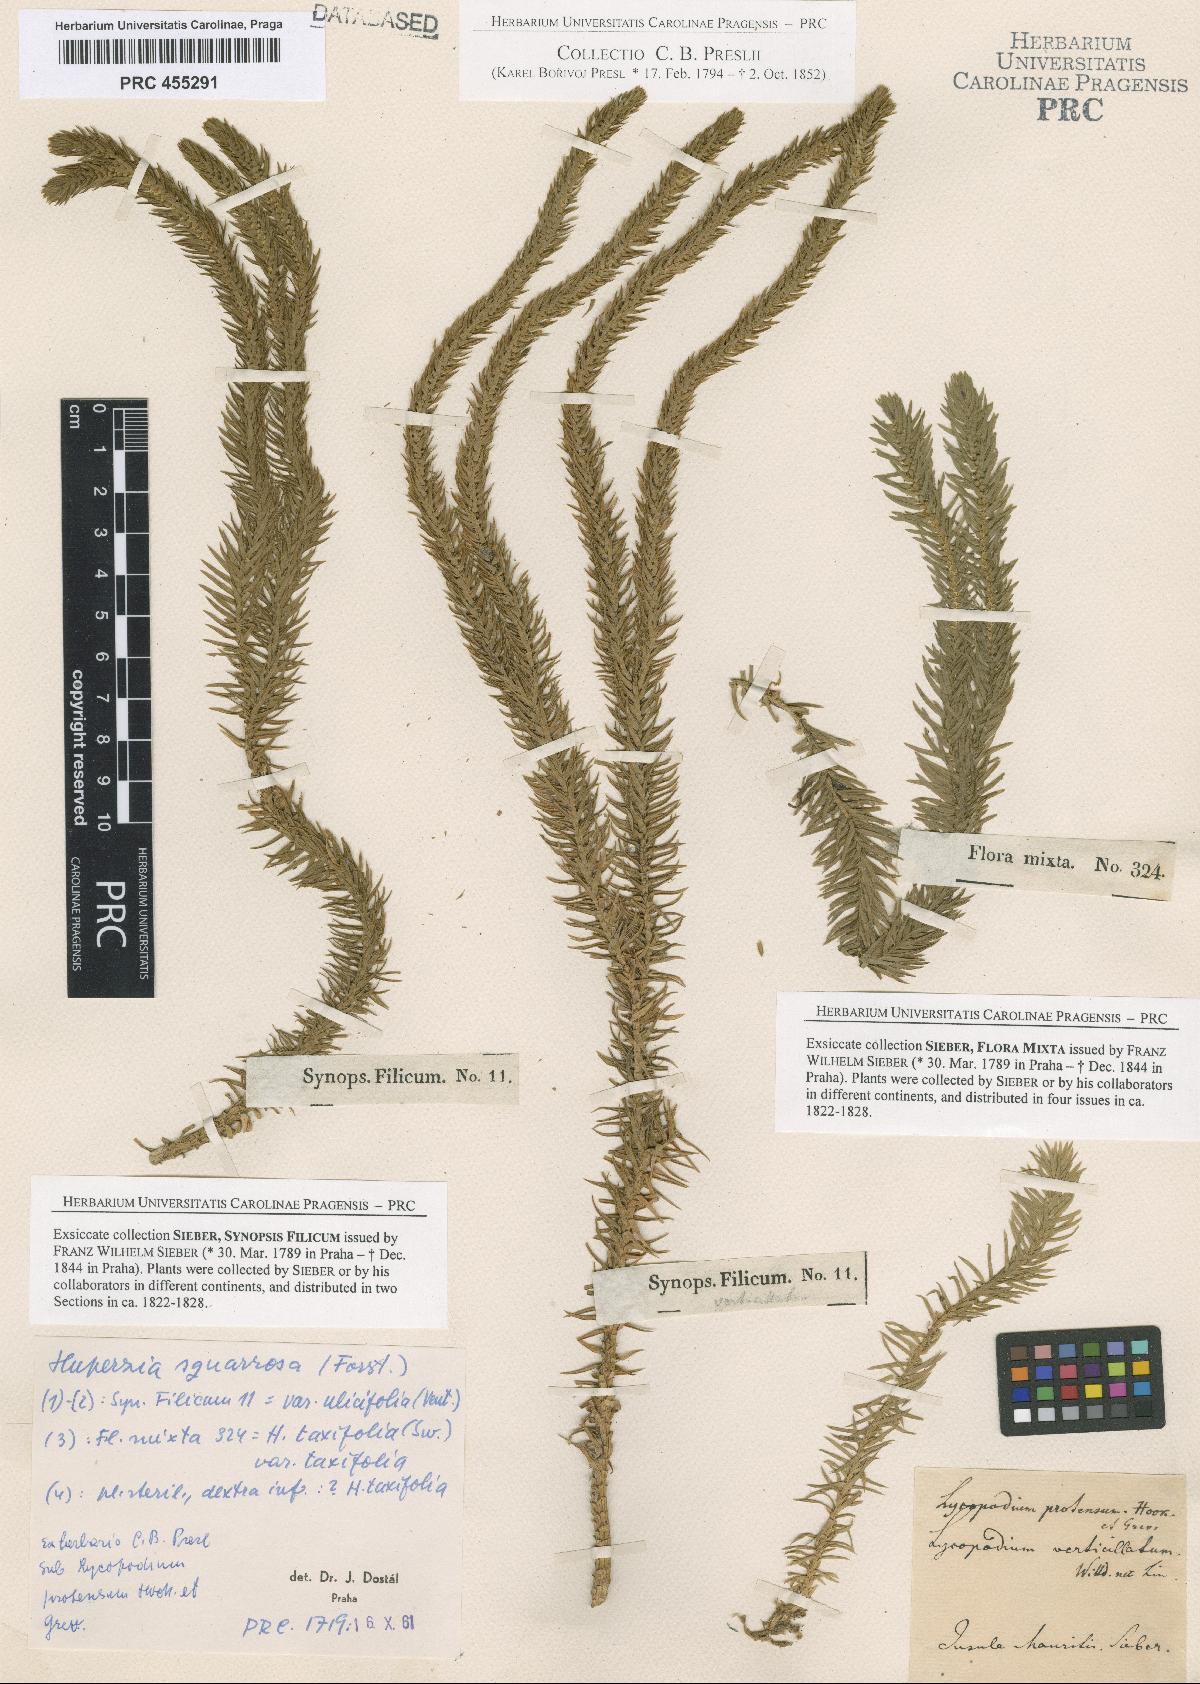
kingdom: Plantae
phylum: Tracheophyta
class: Lycopodiopsida
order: Lycopodiales
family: Lycopodiaceae
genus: Phlegmariurus
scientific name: Phlegmariurus squarrosus
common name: Rock tassel-fern
